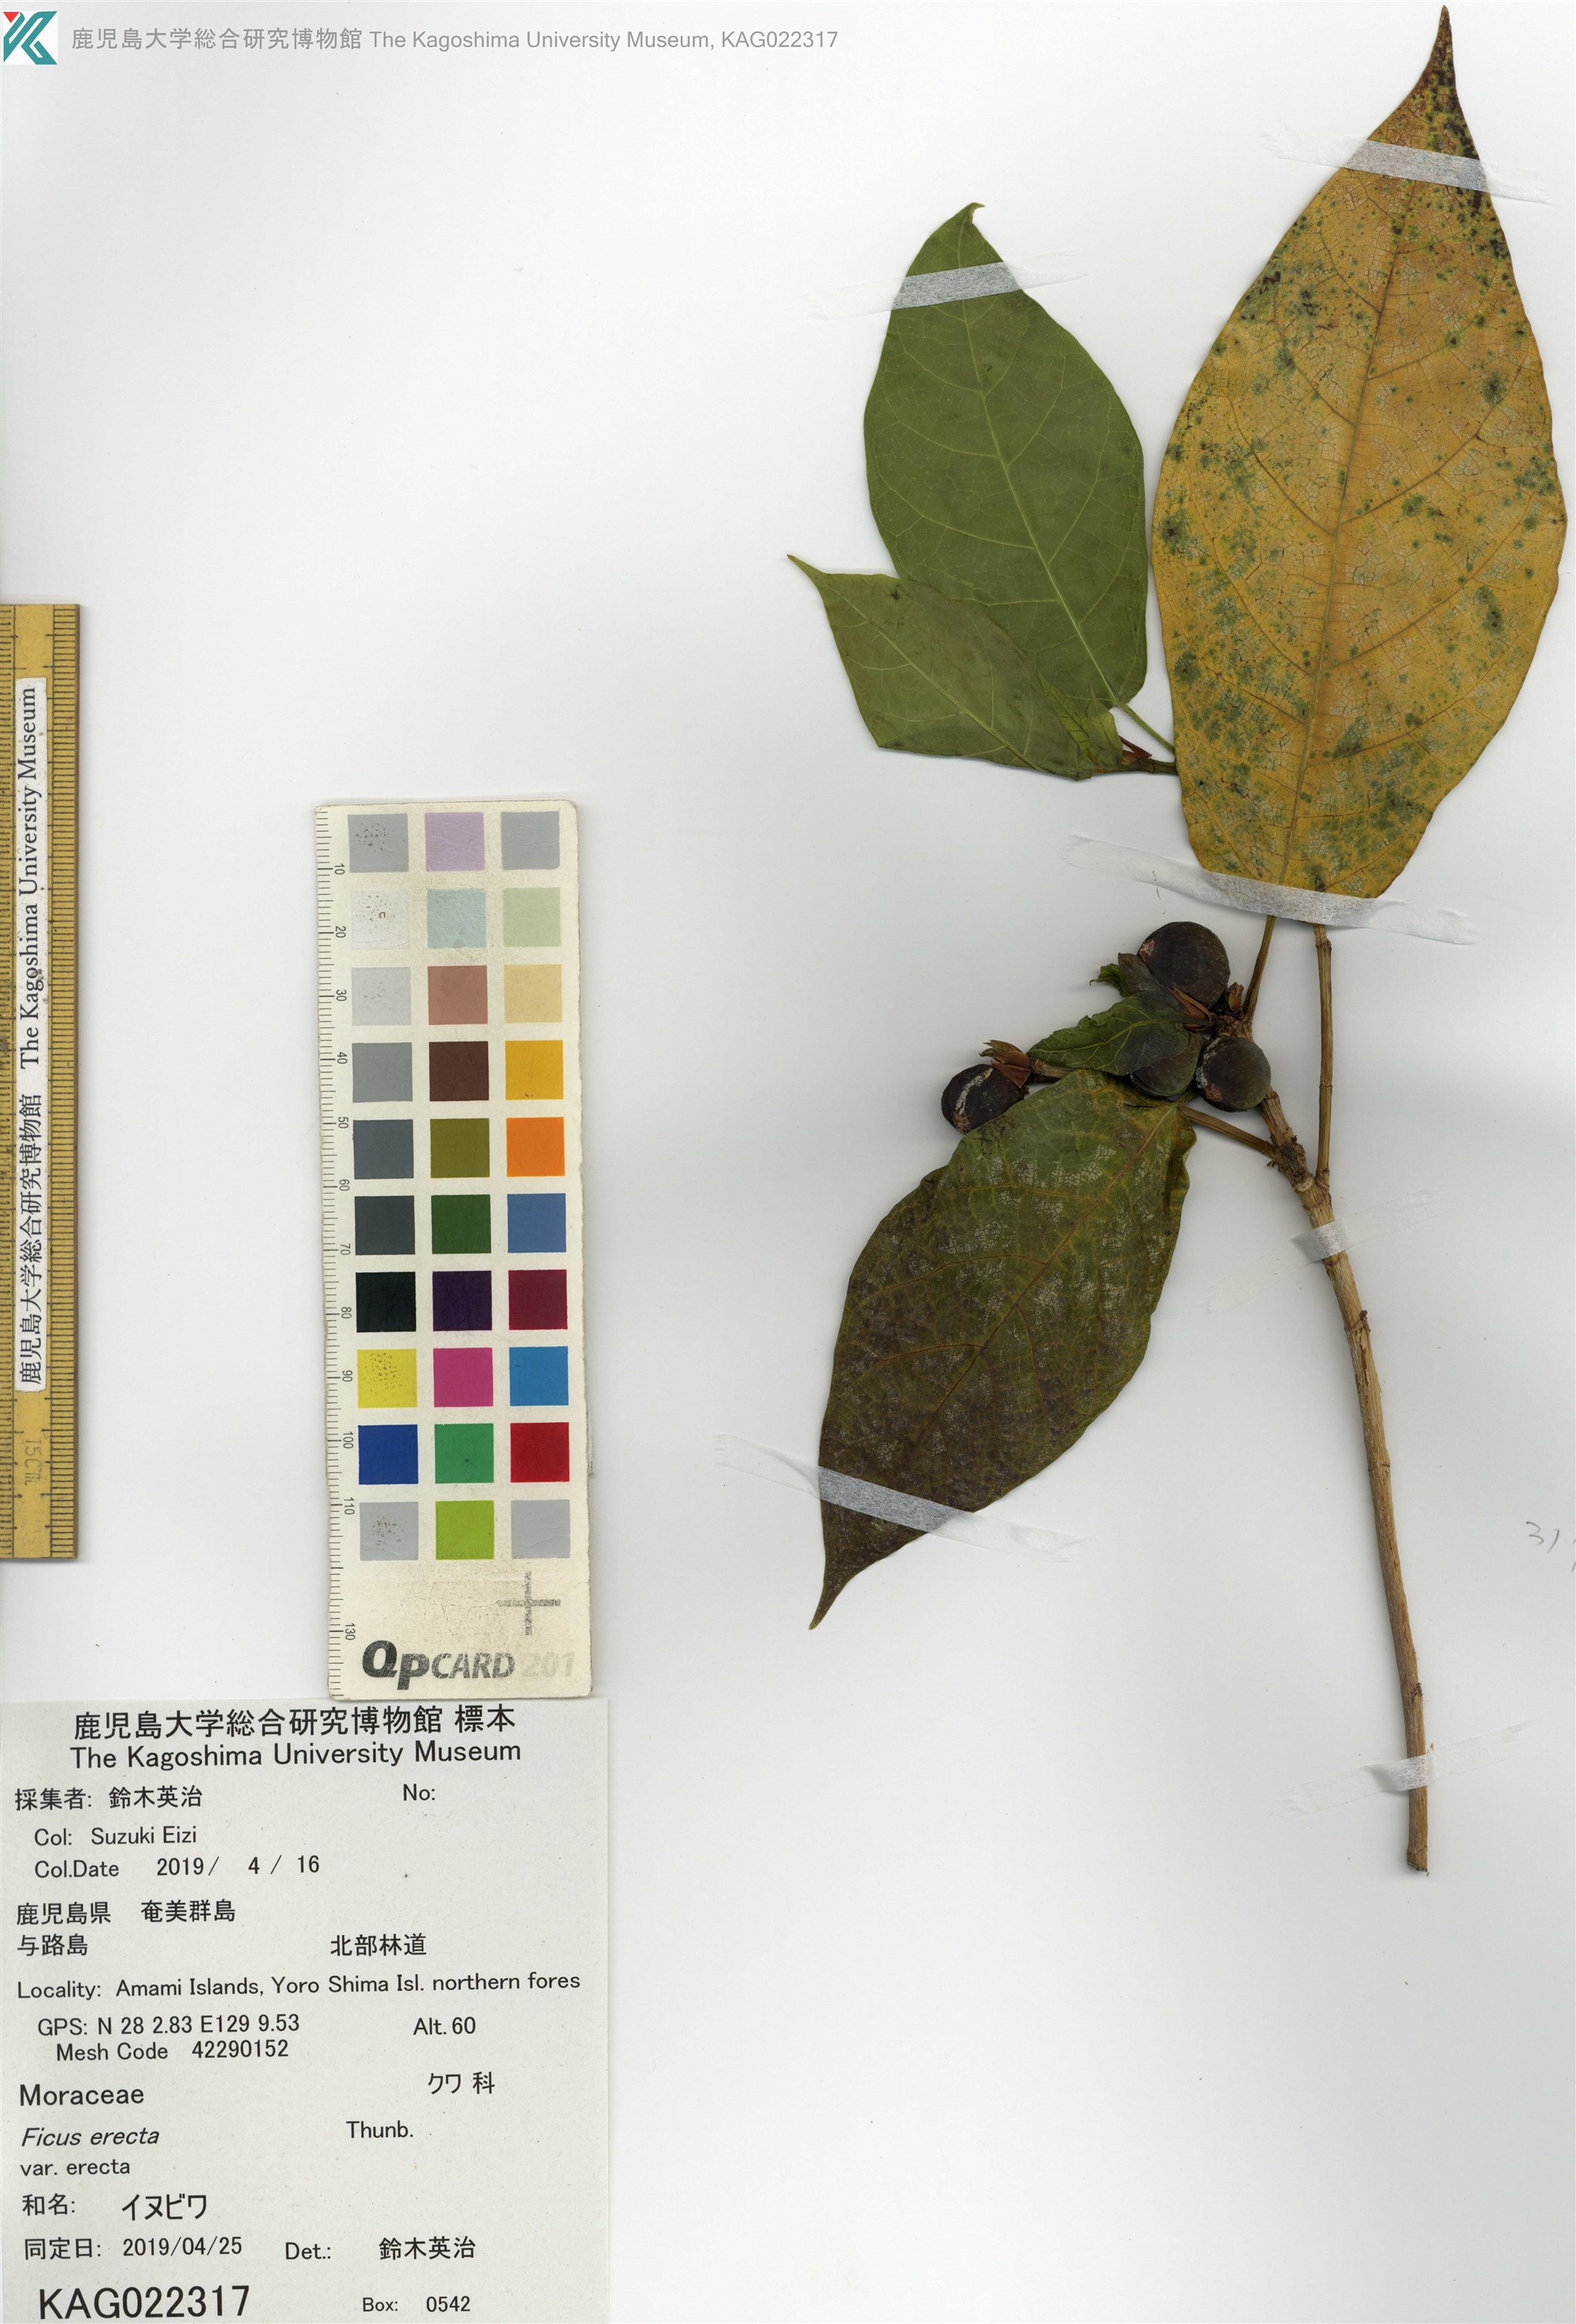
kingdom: Plantae
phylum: Tracheophyta
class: Magnoliopsida
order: Rosales
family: Moraceae
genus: Ficus
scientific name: Ficus erecta
